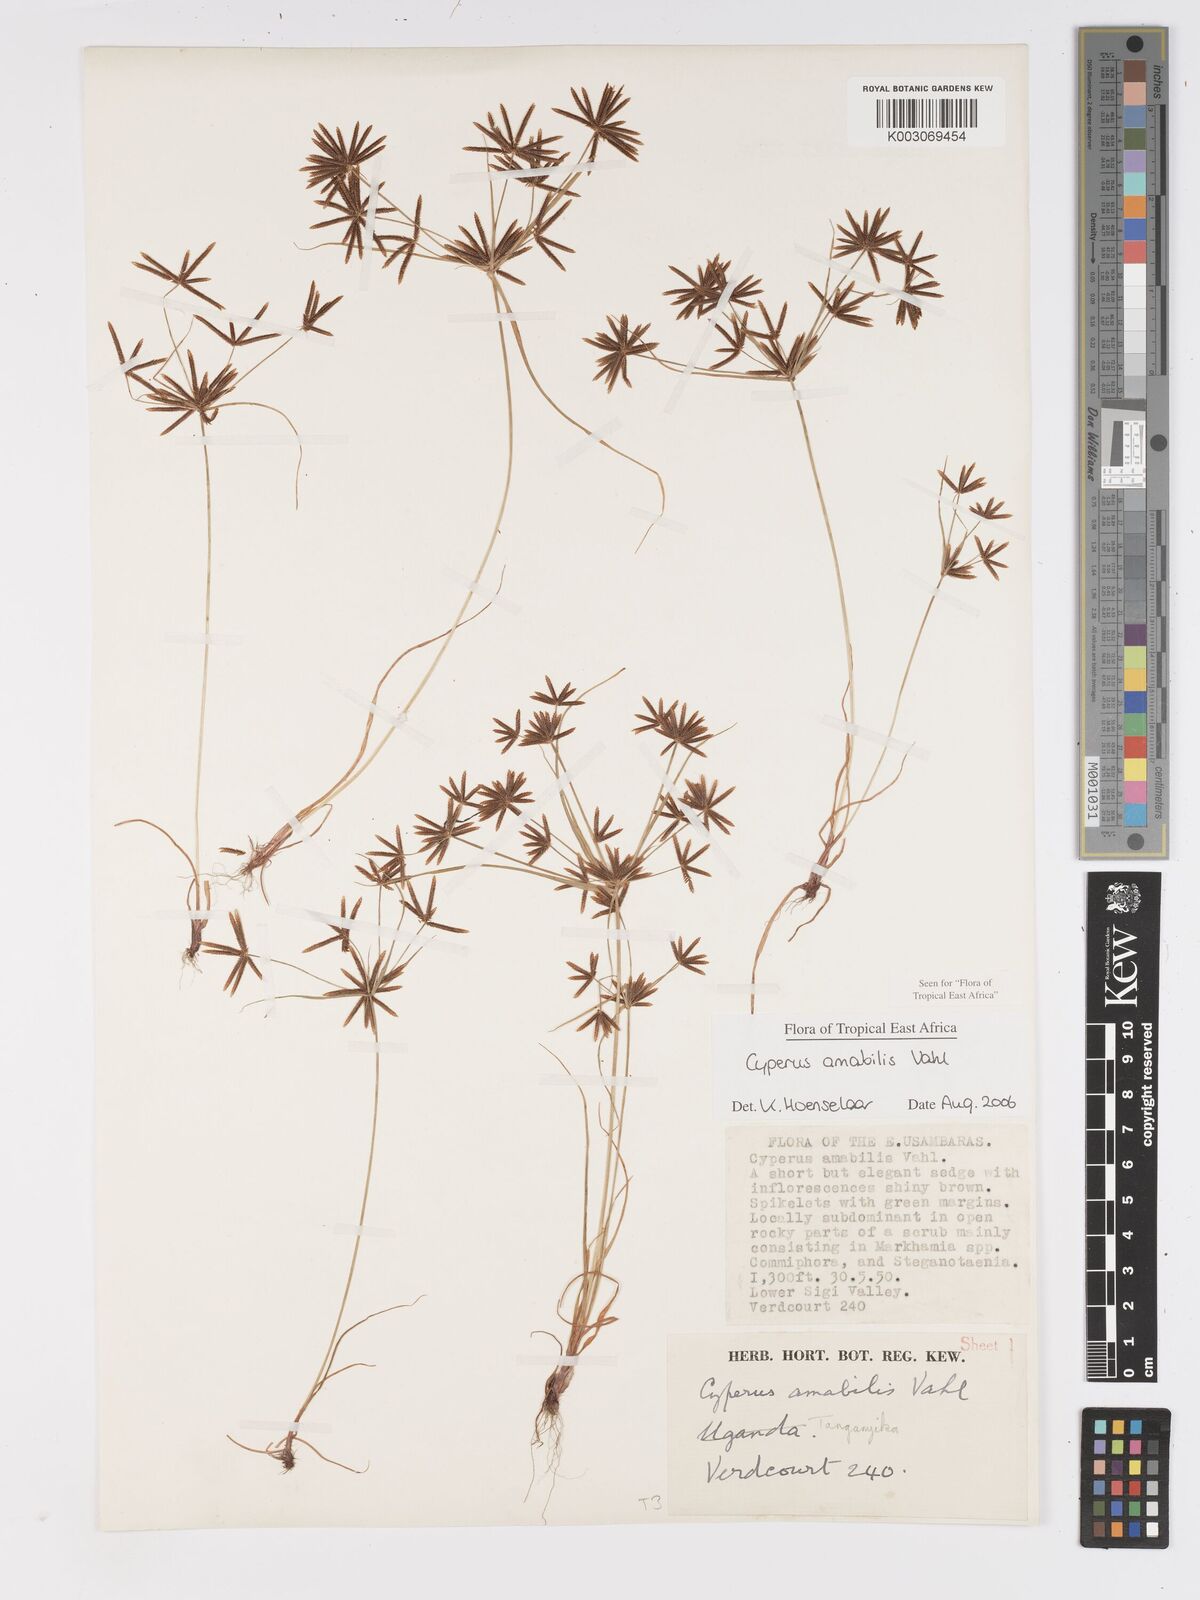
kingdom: Plantae
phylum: Tracheophyta
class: Liliopsida
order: Poales
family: Cyperaceae
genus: Cyperus
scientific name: Cyperus amabilis
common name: Foothill flat sedge
